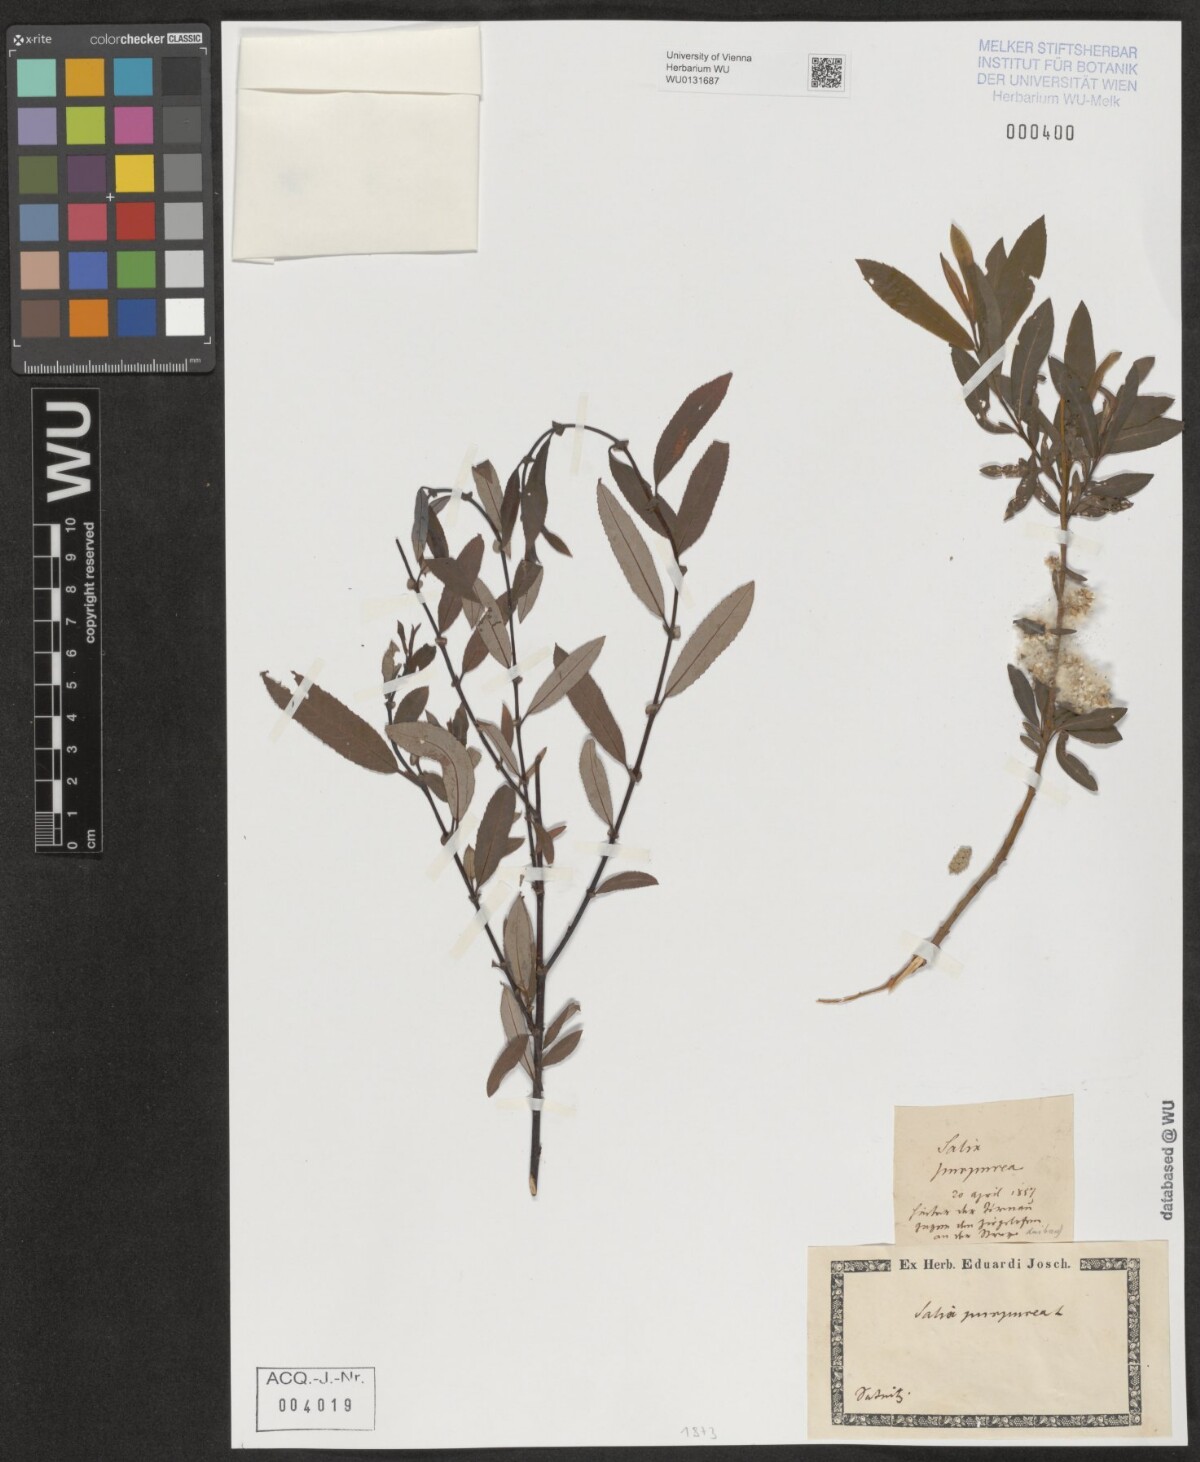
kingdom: Plantae
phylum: Tracheophyta
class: Magnoliopsida
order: Malpighiales
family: Salicaceae
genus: Salix
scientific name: Salix purpurea
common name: Purple willow
